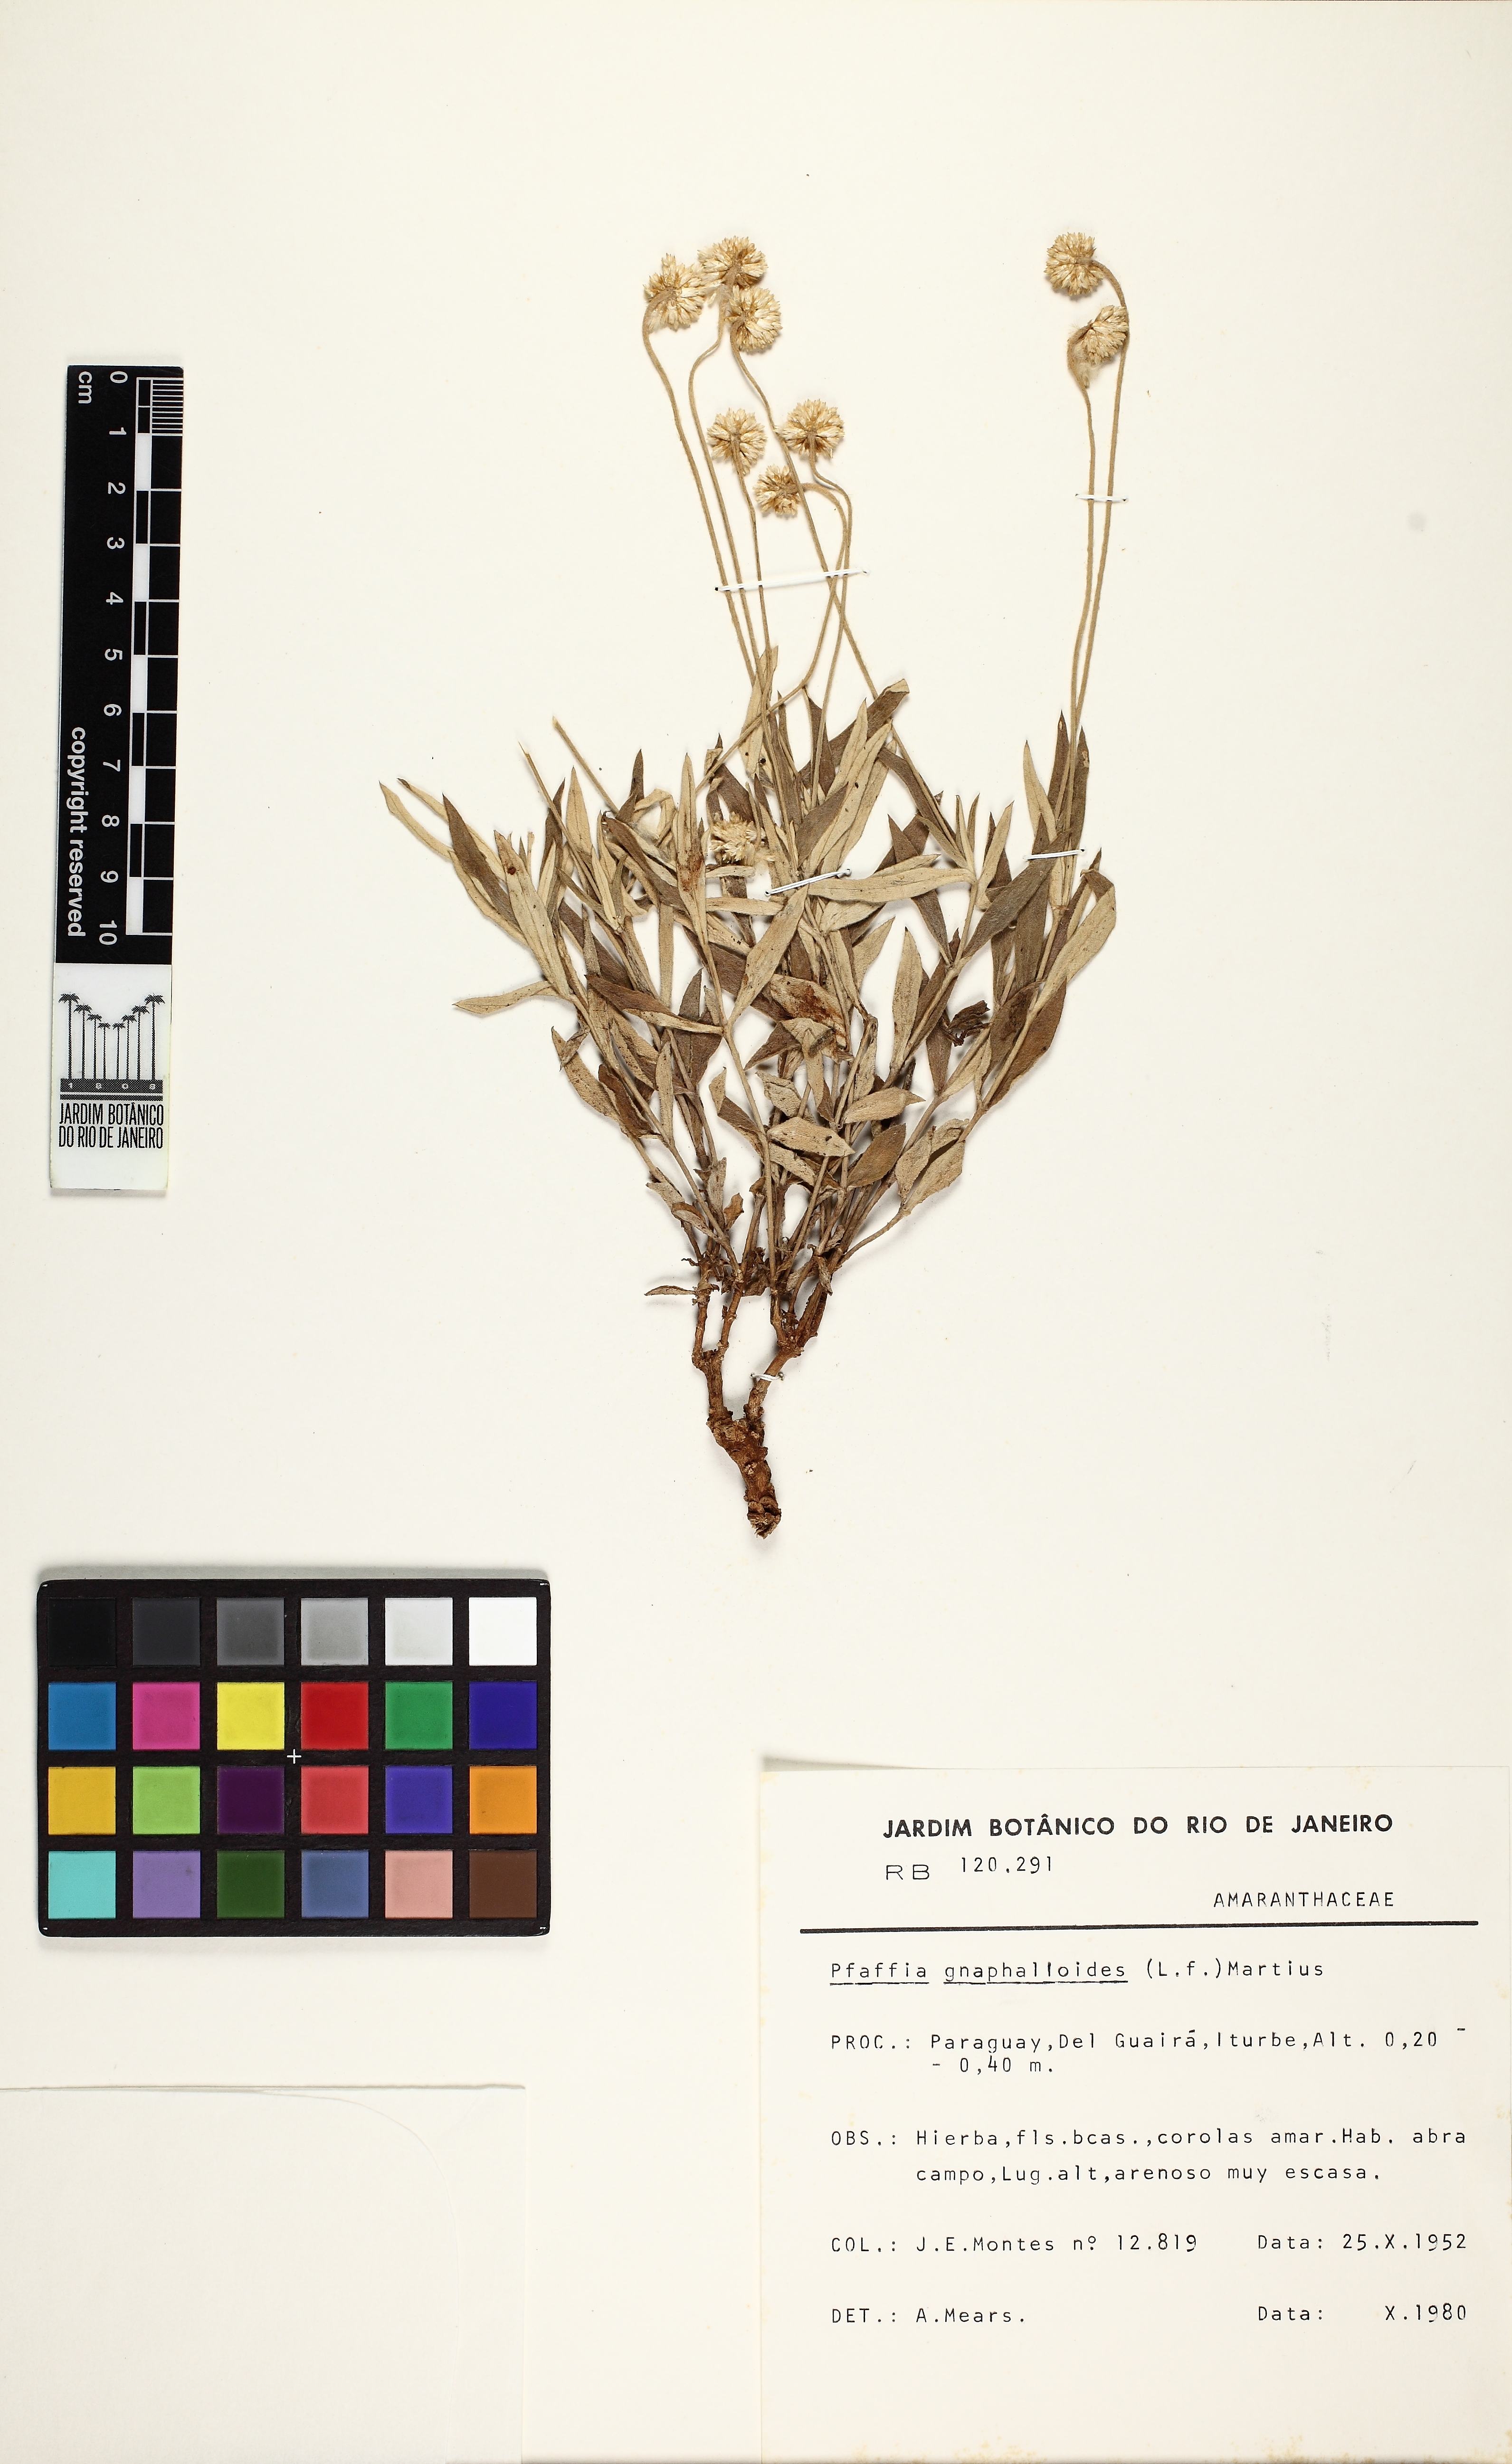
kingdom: Plantae
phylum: Tracheophyta
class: Magnoliopsida
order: Caryophyllales
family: Amaranthaceae
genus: Pfaffia
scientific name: Pfaffia gnaphaloides
